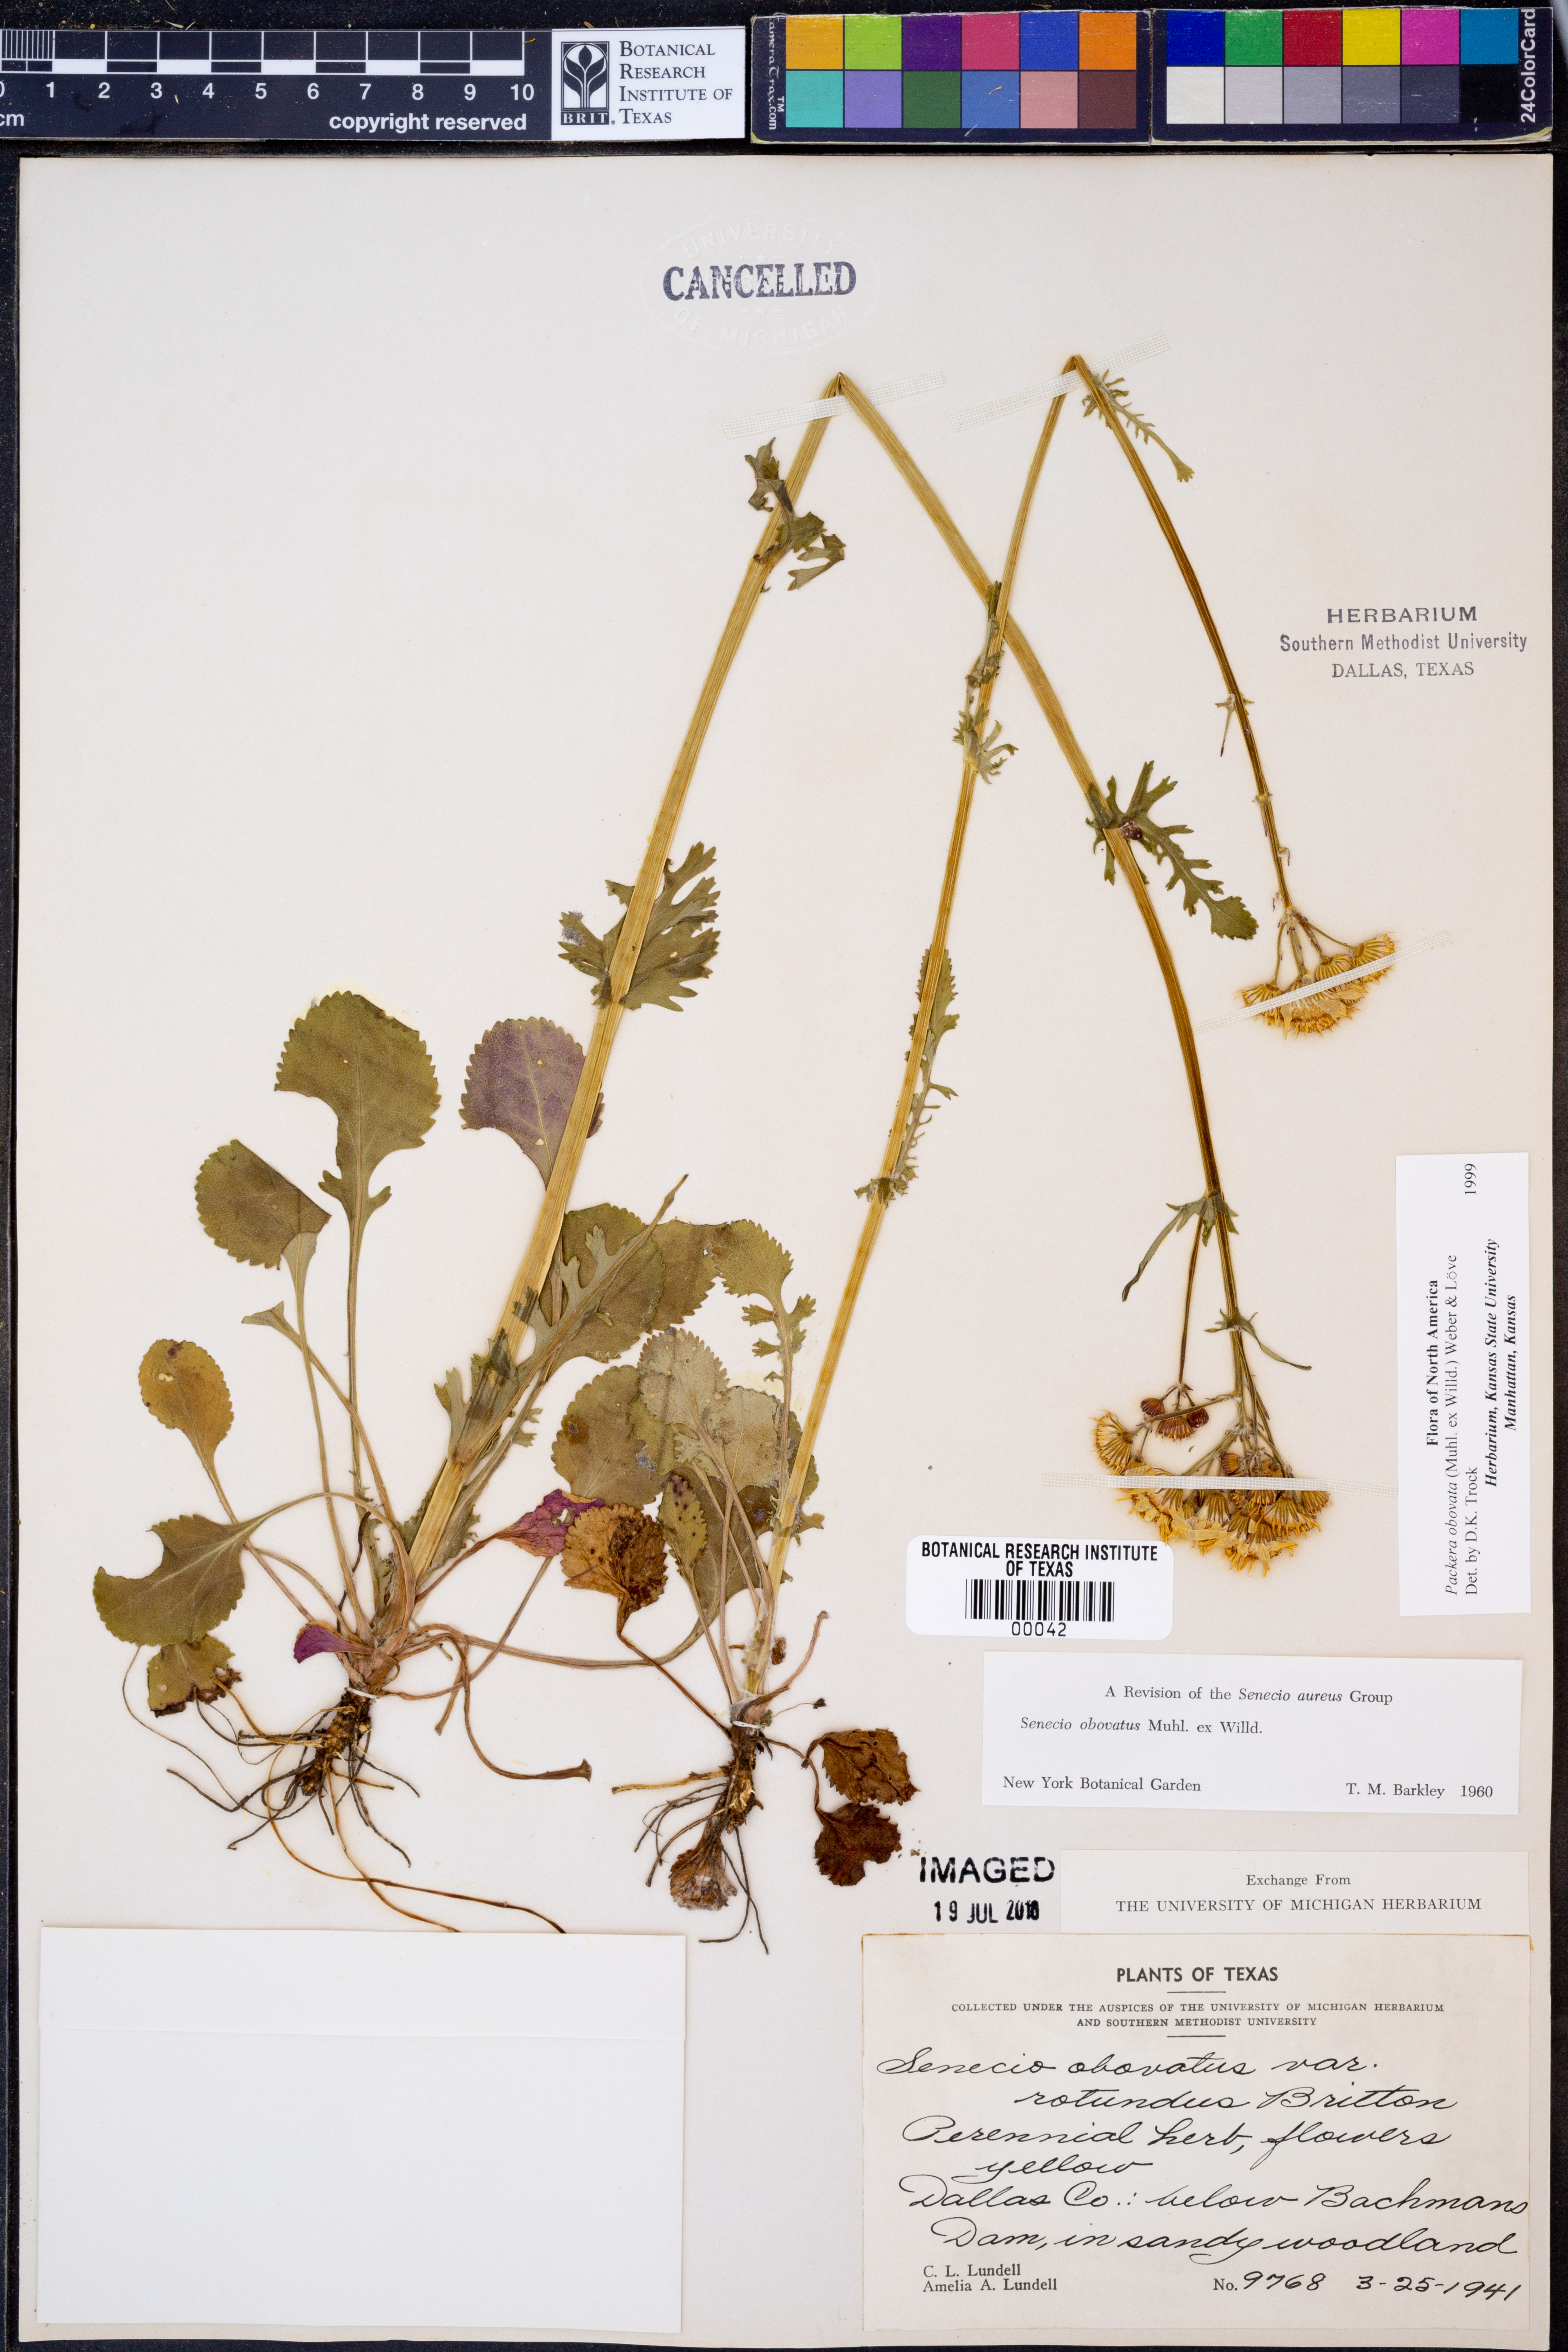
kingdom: Plantae
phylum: Tracheophyta
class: Magnoliopsida
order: Asterales
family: Asteraceae
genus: Packera
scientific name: Packera obovata
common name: Round-leaf ragwort
